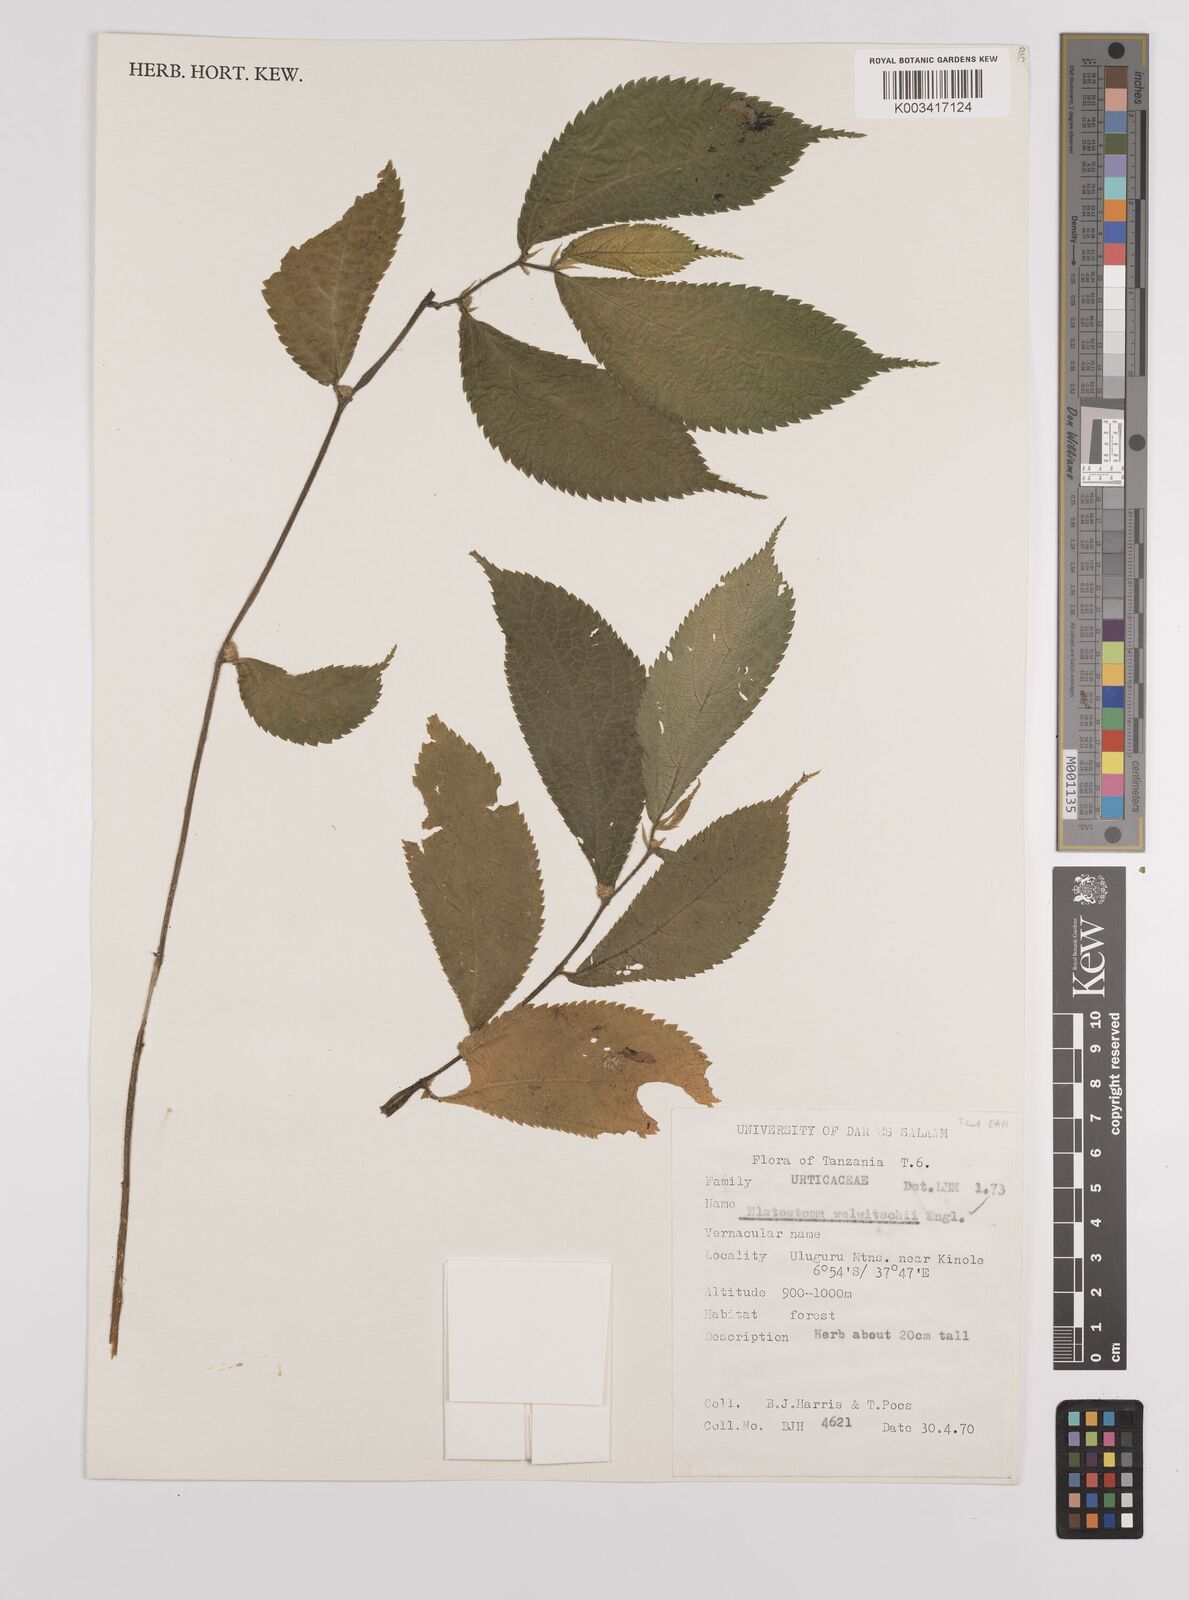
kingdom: Plantae
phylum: Tracheophyta
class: Magnoliopsida
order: Rosales
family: Urticaceae
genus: Elatostema
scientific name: Elatostema welwitschii
